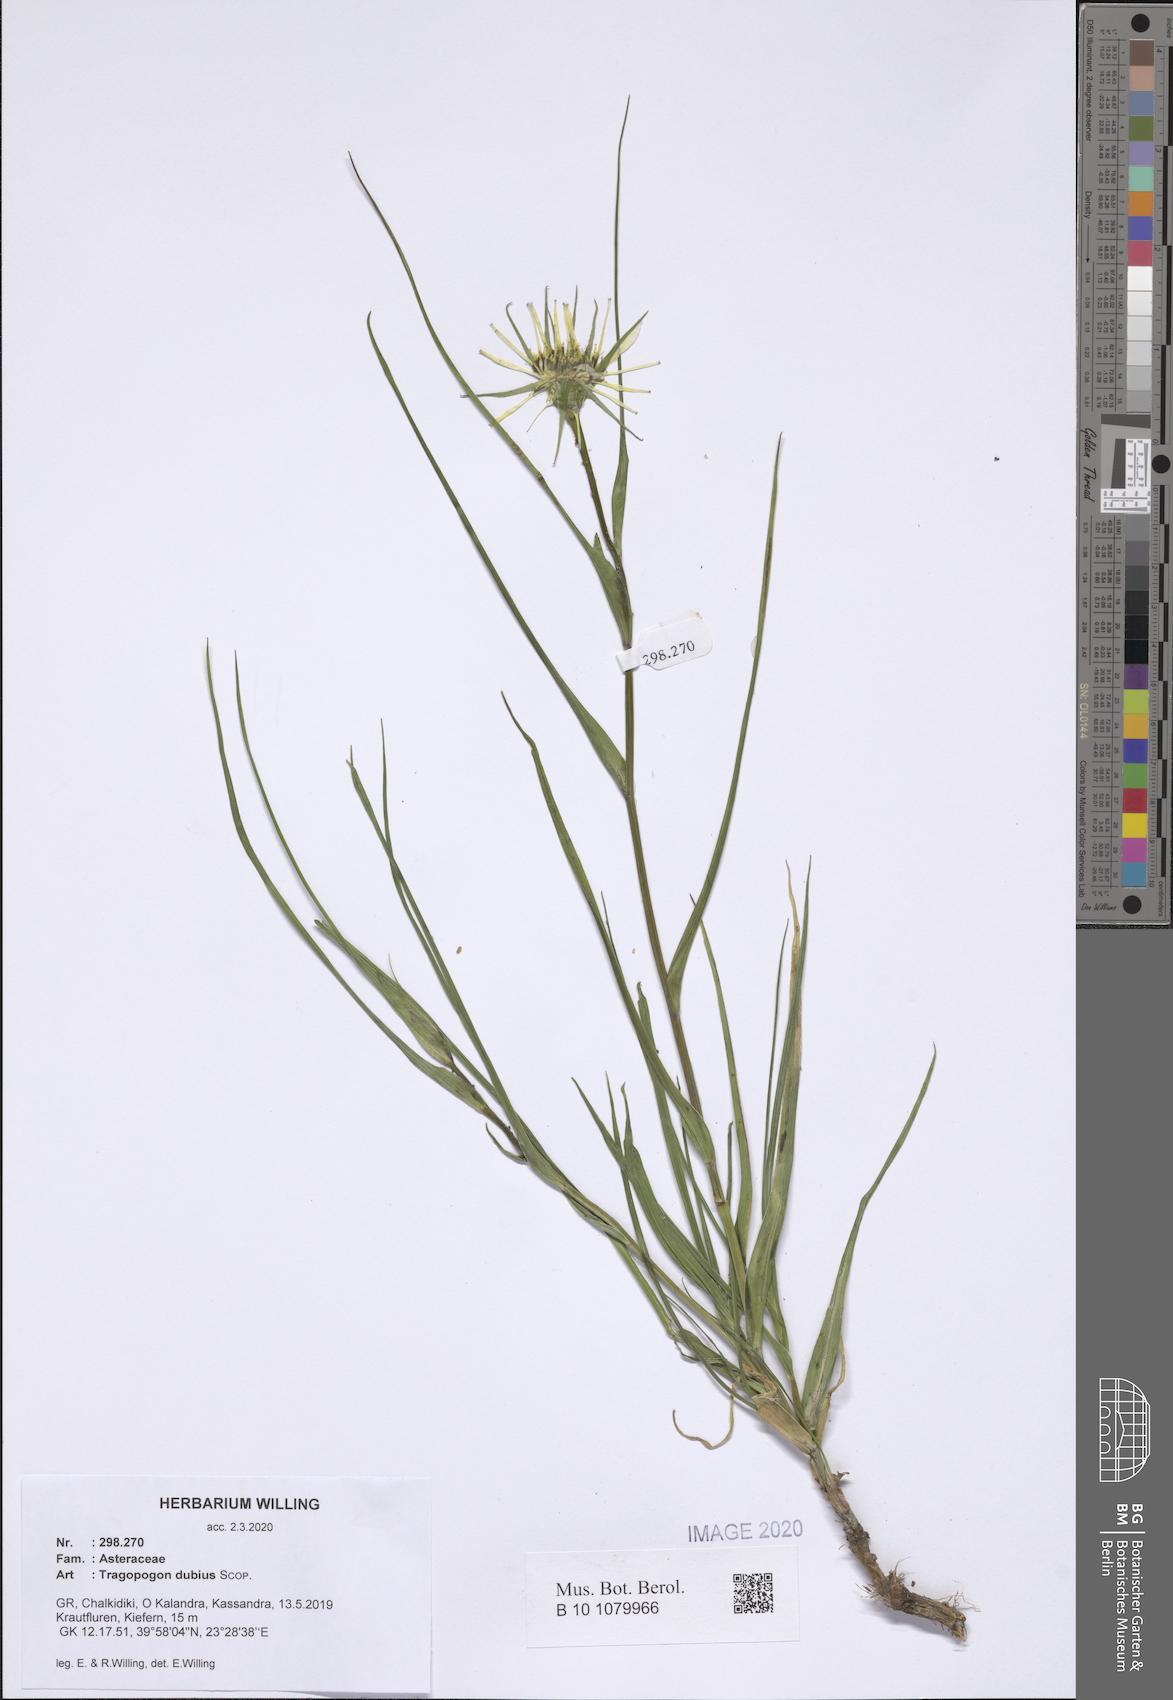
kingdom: Plantae
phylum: Tracheophyta
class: Magnoliopsida
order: Asterales
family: Asteraceae
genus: Tragopogon
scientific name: Tragopogon dubius
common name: Yellow salsify
